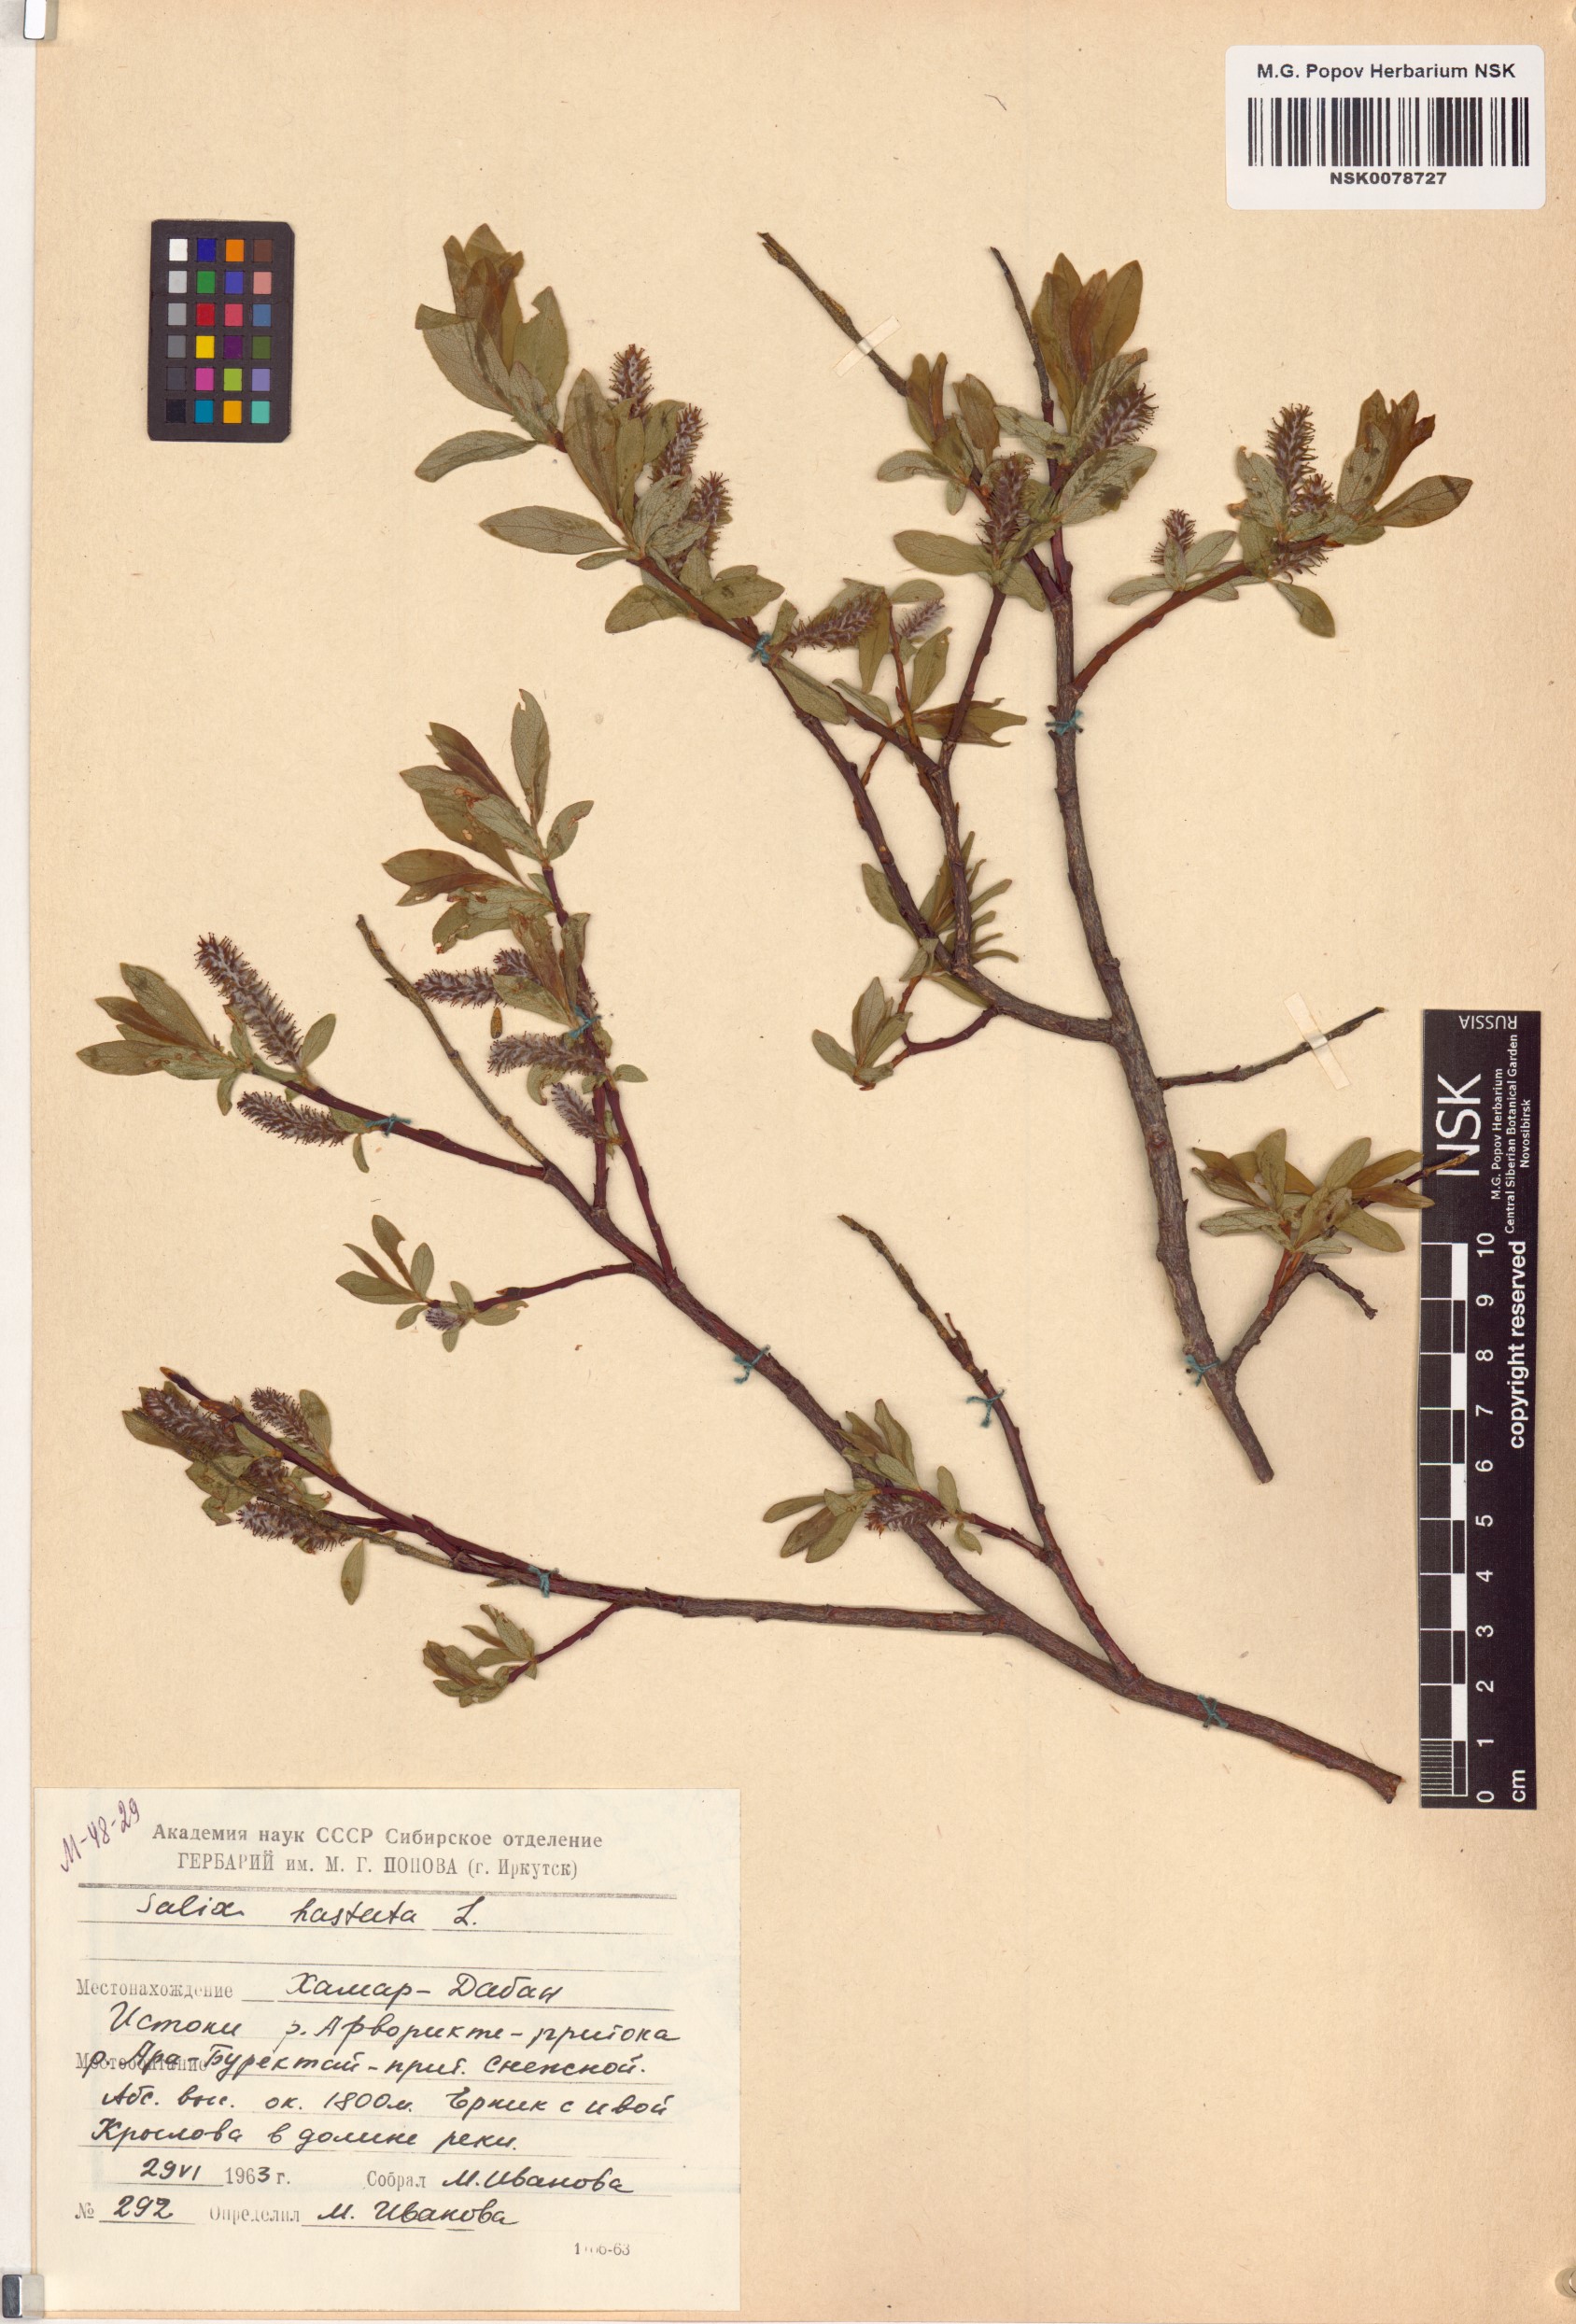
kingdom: Plantae
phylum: Tracheophyta
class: Magnoliopsida
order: Malpighiales
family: Salicaceae
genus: Salix
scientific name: Salix hastata
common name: Halberd willow
